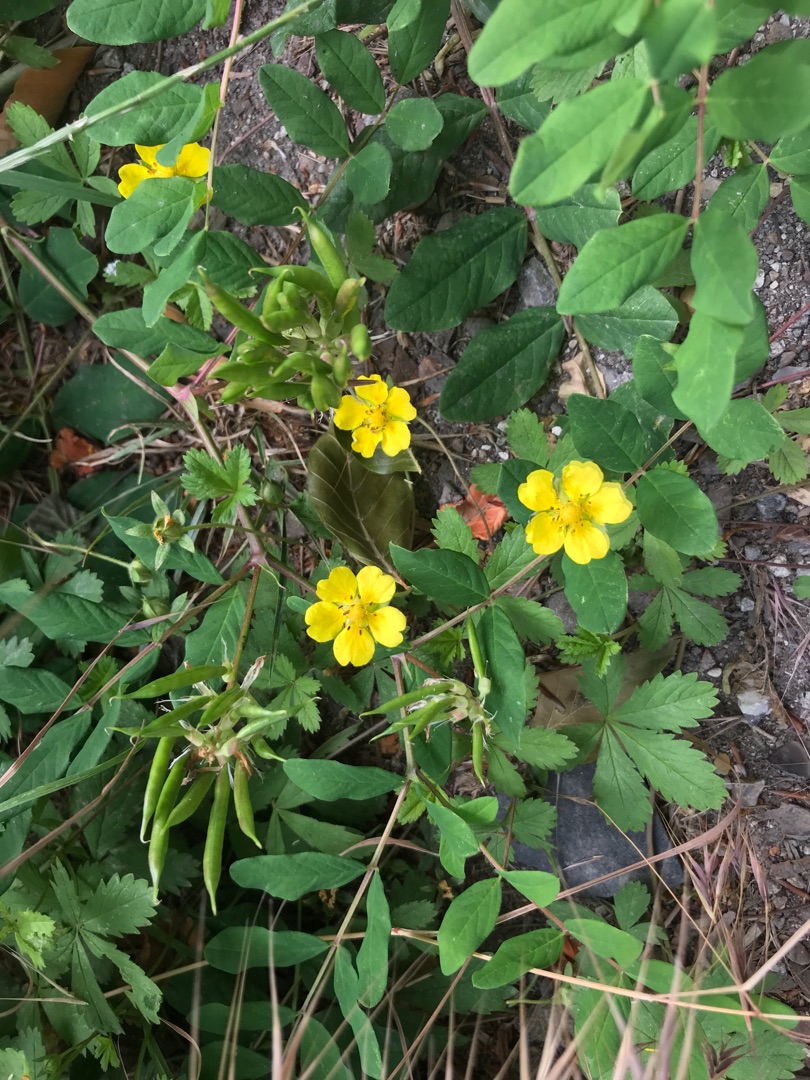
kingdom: Plantae
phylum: Tracheophyta
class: Magnoliopsida
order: Rosales
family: Rosaceae
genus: Potentilla
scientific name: Potentilla reptans
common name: Krybende potentil
